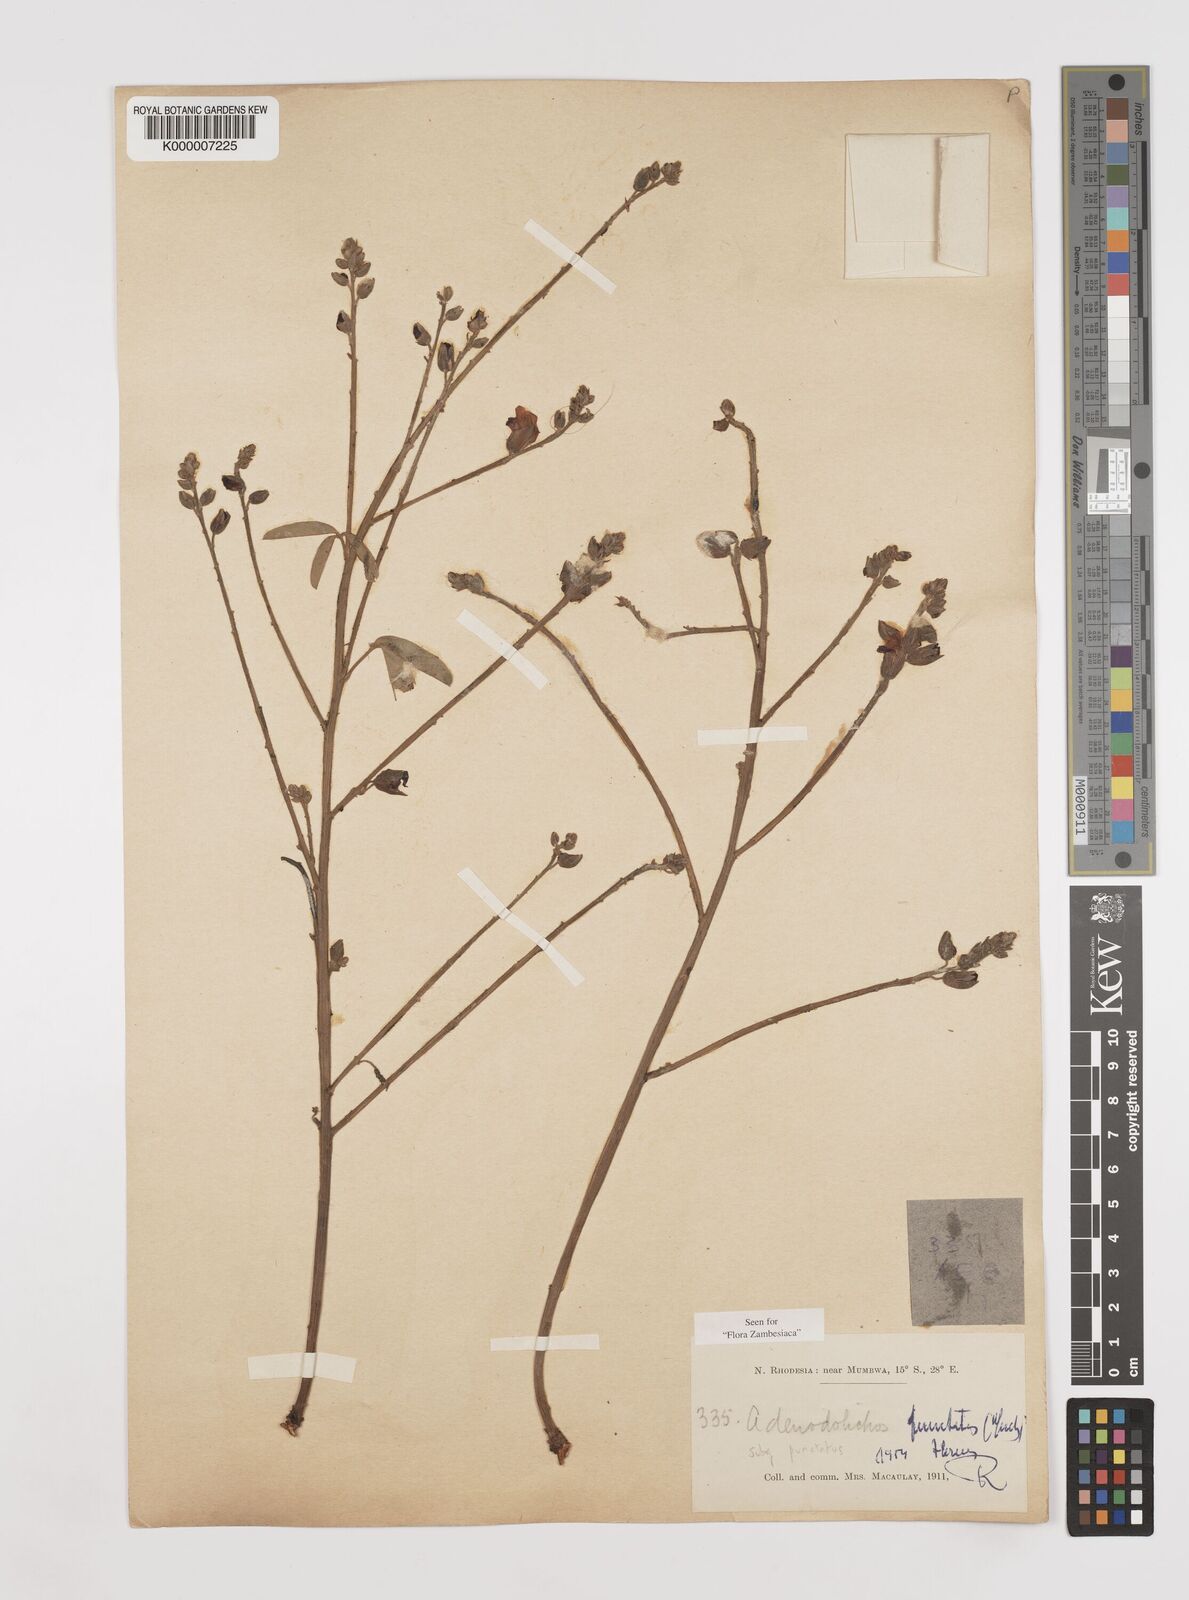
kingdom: Plantae
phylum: Tracheophyta
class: Magnoliopsida
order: Fabales
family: Fabaceae
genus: Adenodolichos
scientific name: Adenodolichos punctatus
